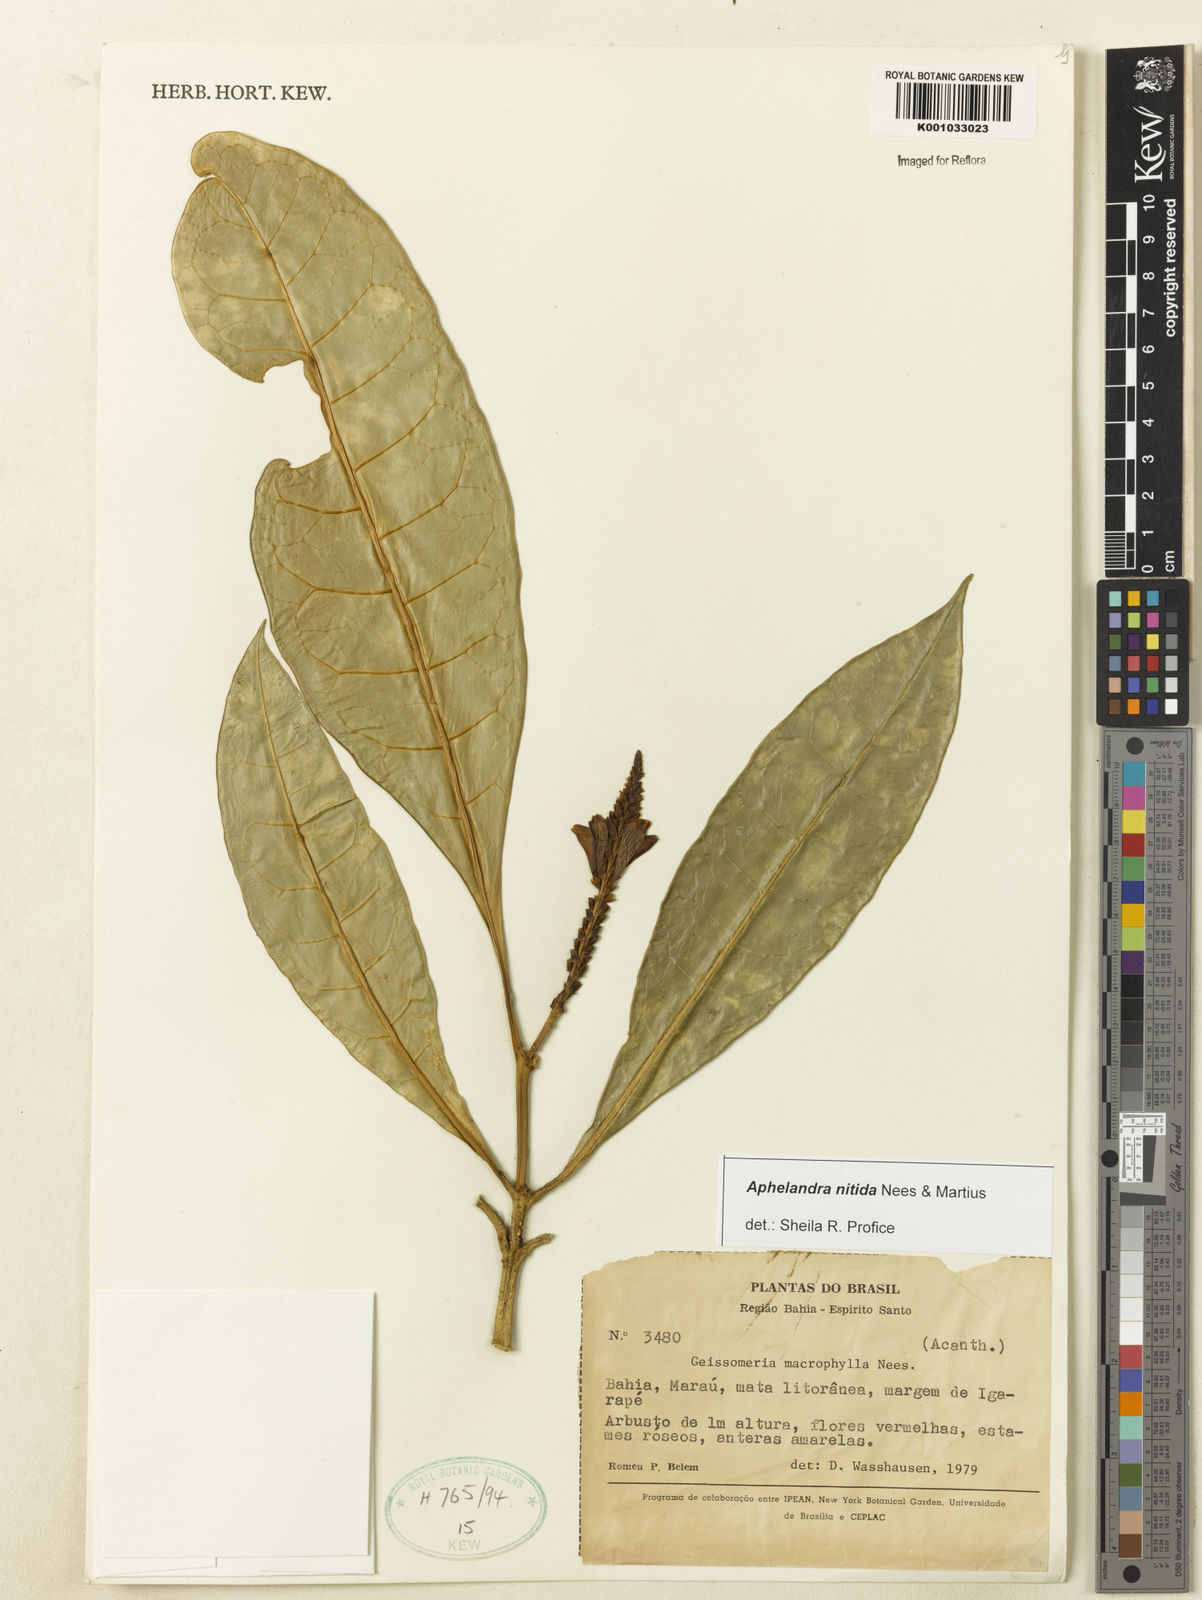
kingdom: Plantae
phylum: Tracheophyta
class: Magnoliopsida
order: Lamiales
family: Acanthaceae
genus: Aphelandra
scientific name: Aphelandra nitida
